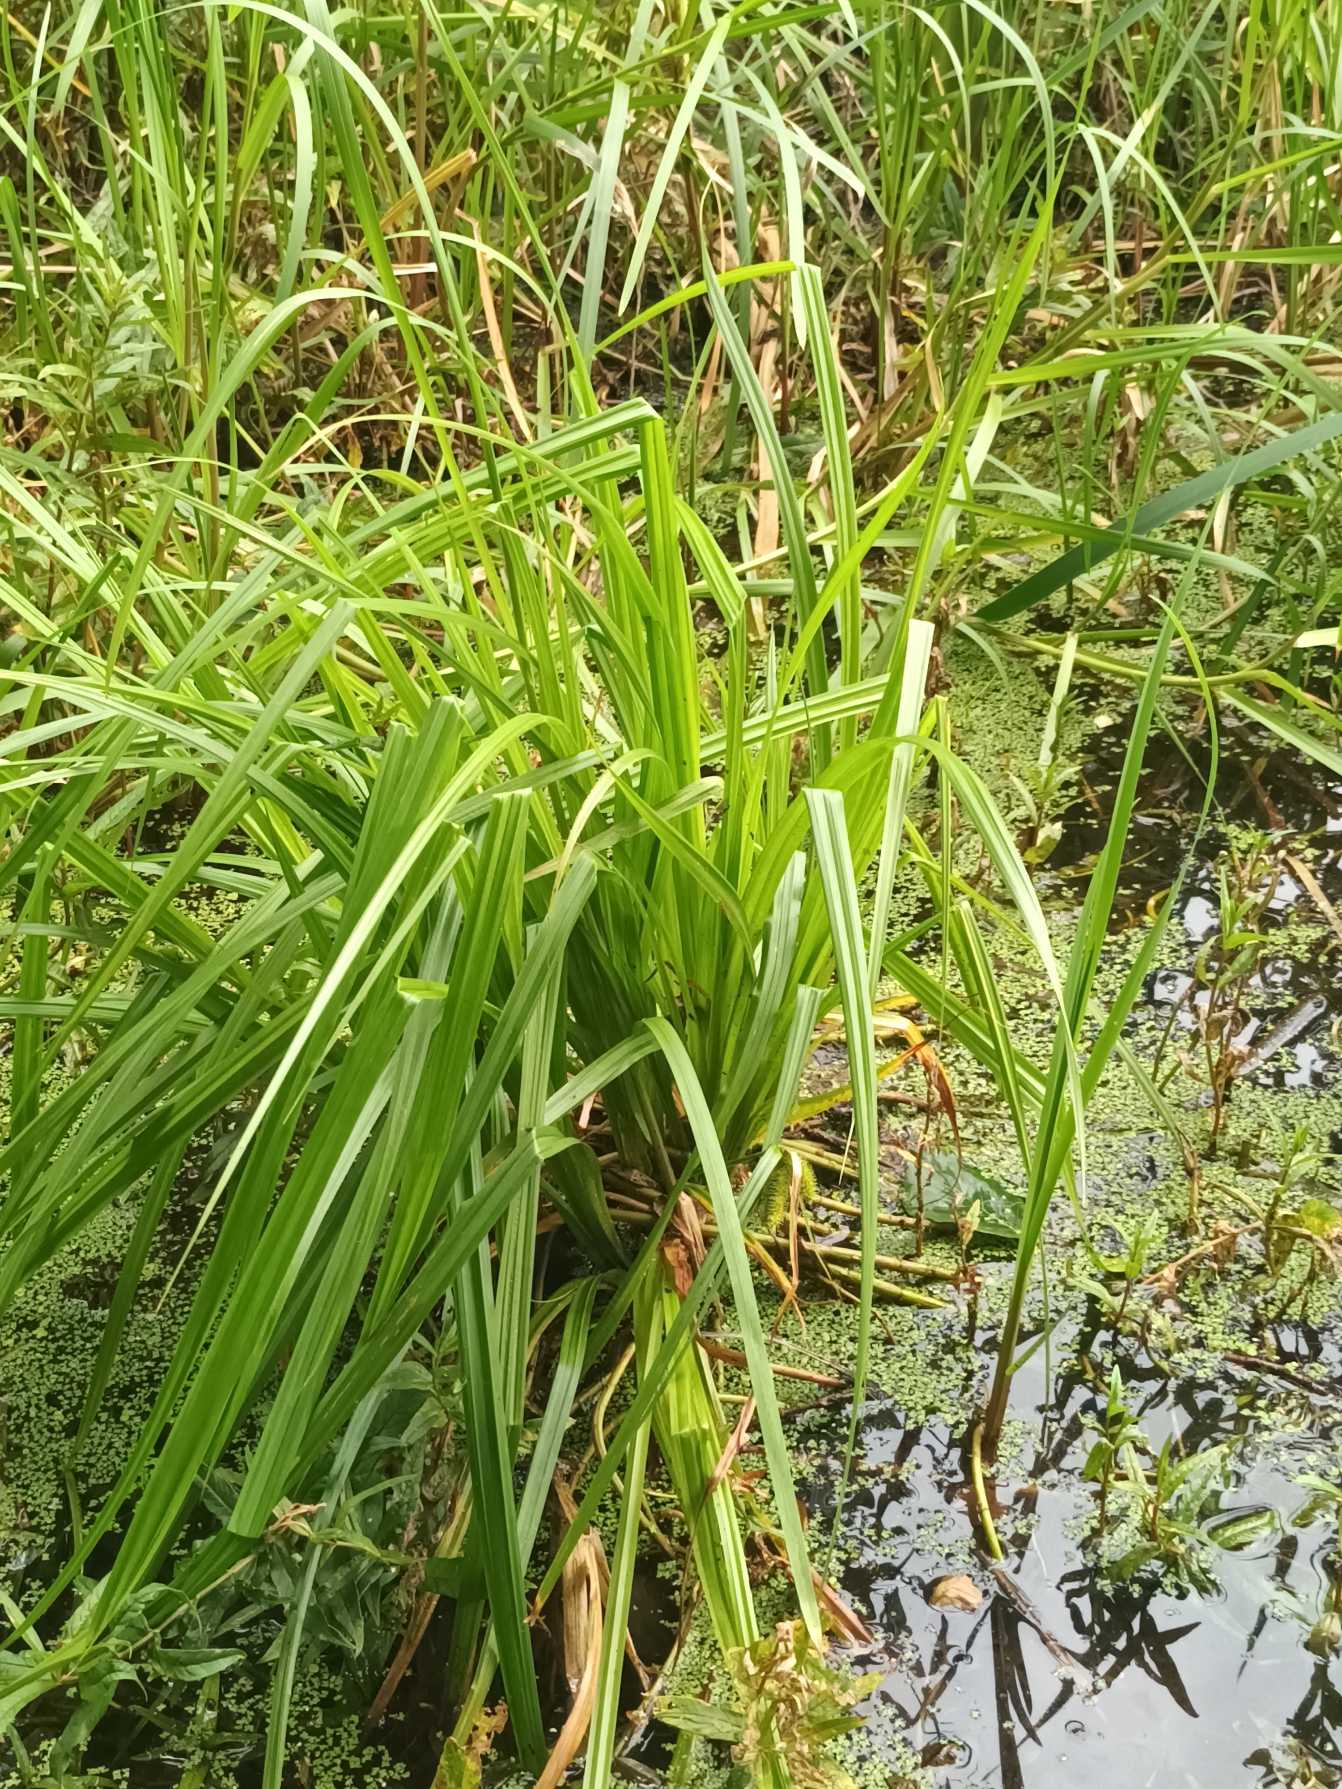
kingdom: Plantae
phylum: Tracheophyta
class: Liliopsida
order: Poales
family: Cyperaceae
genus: Carex
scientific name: Carex pseudocyperus
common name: Knippe-star
